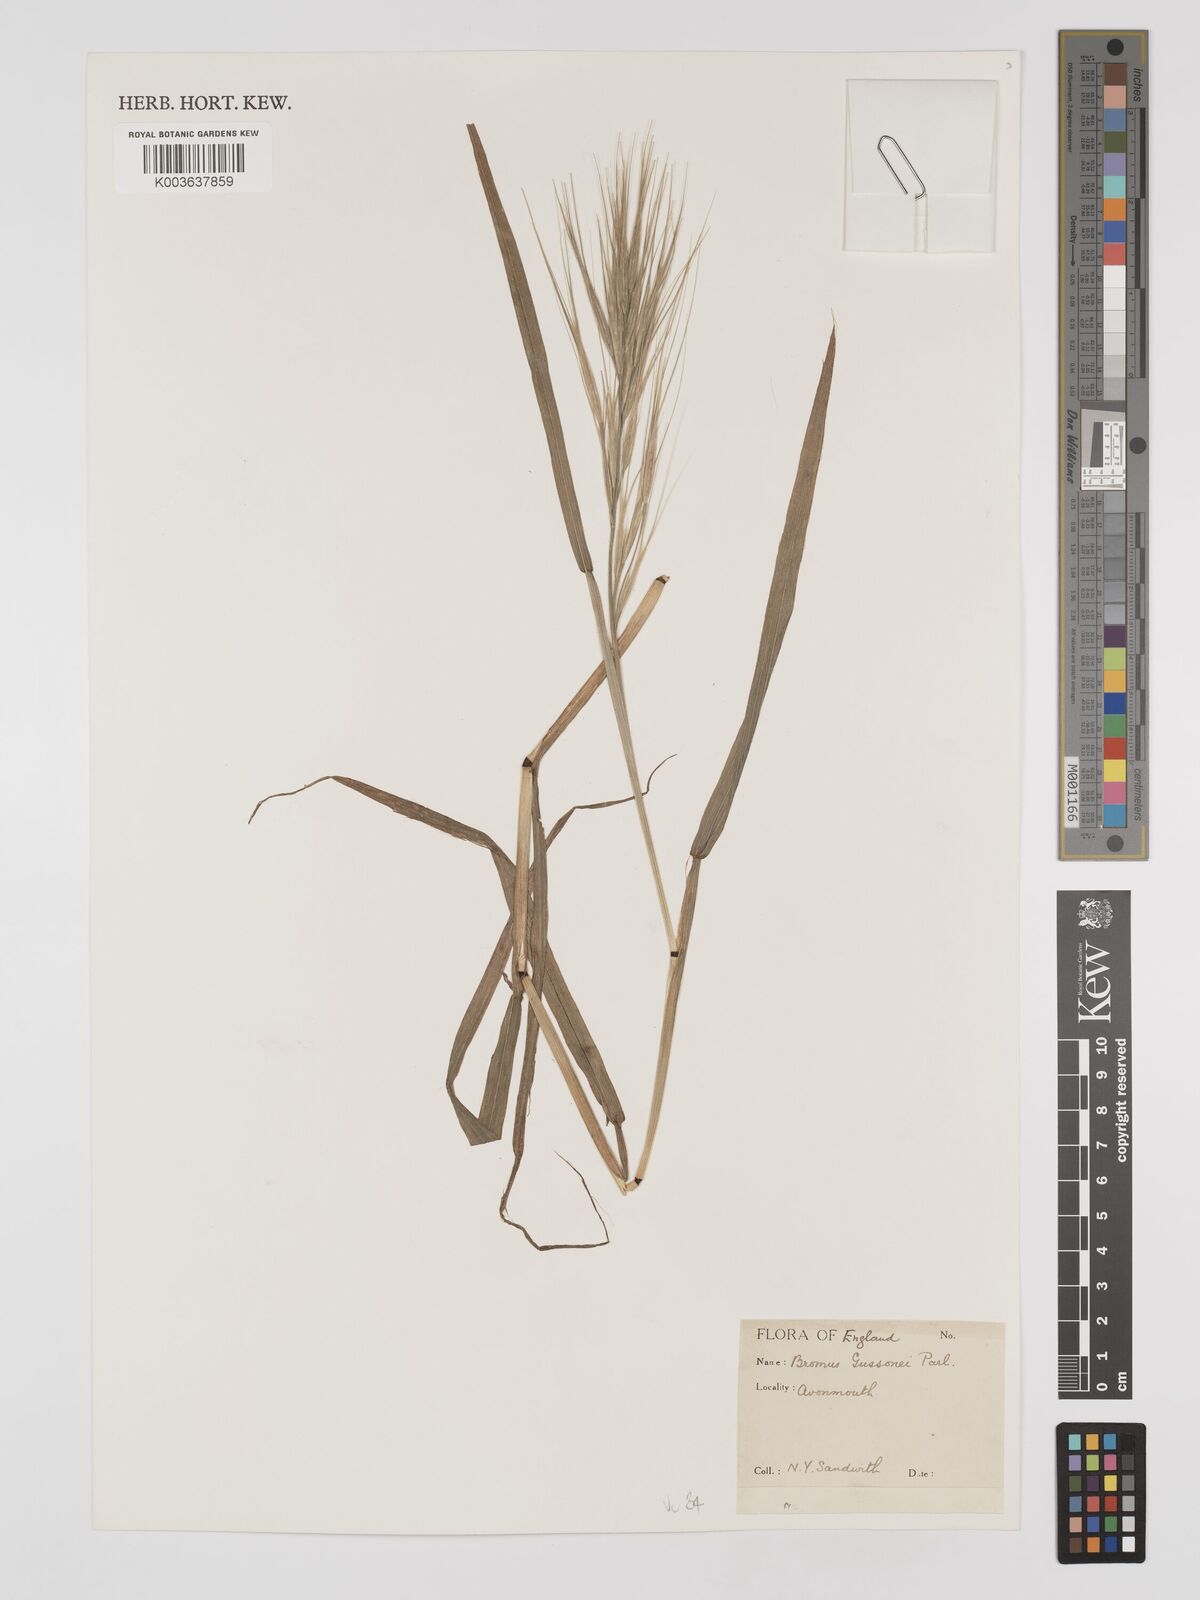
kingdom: Plantae
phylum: Tracheophyta
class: Liliopsida
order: Poales
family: Poaceae
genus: Bromus
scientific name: Bromus
